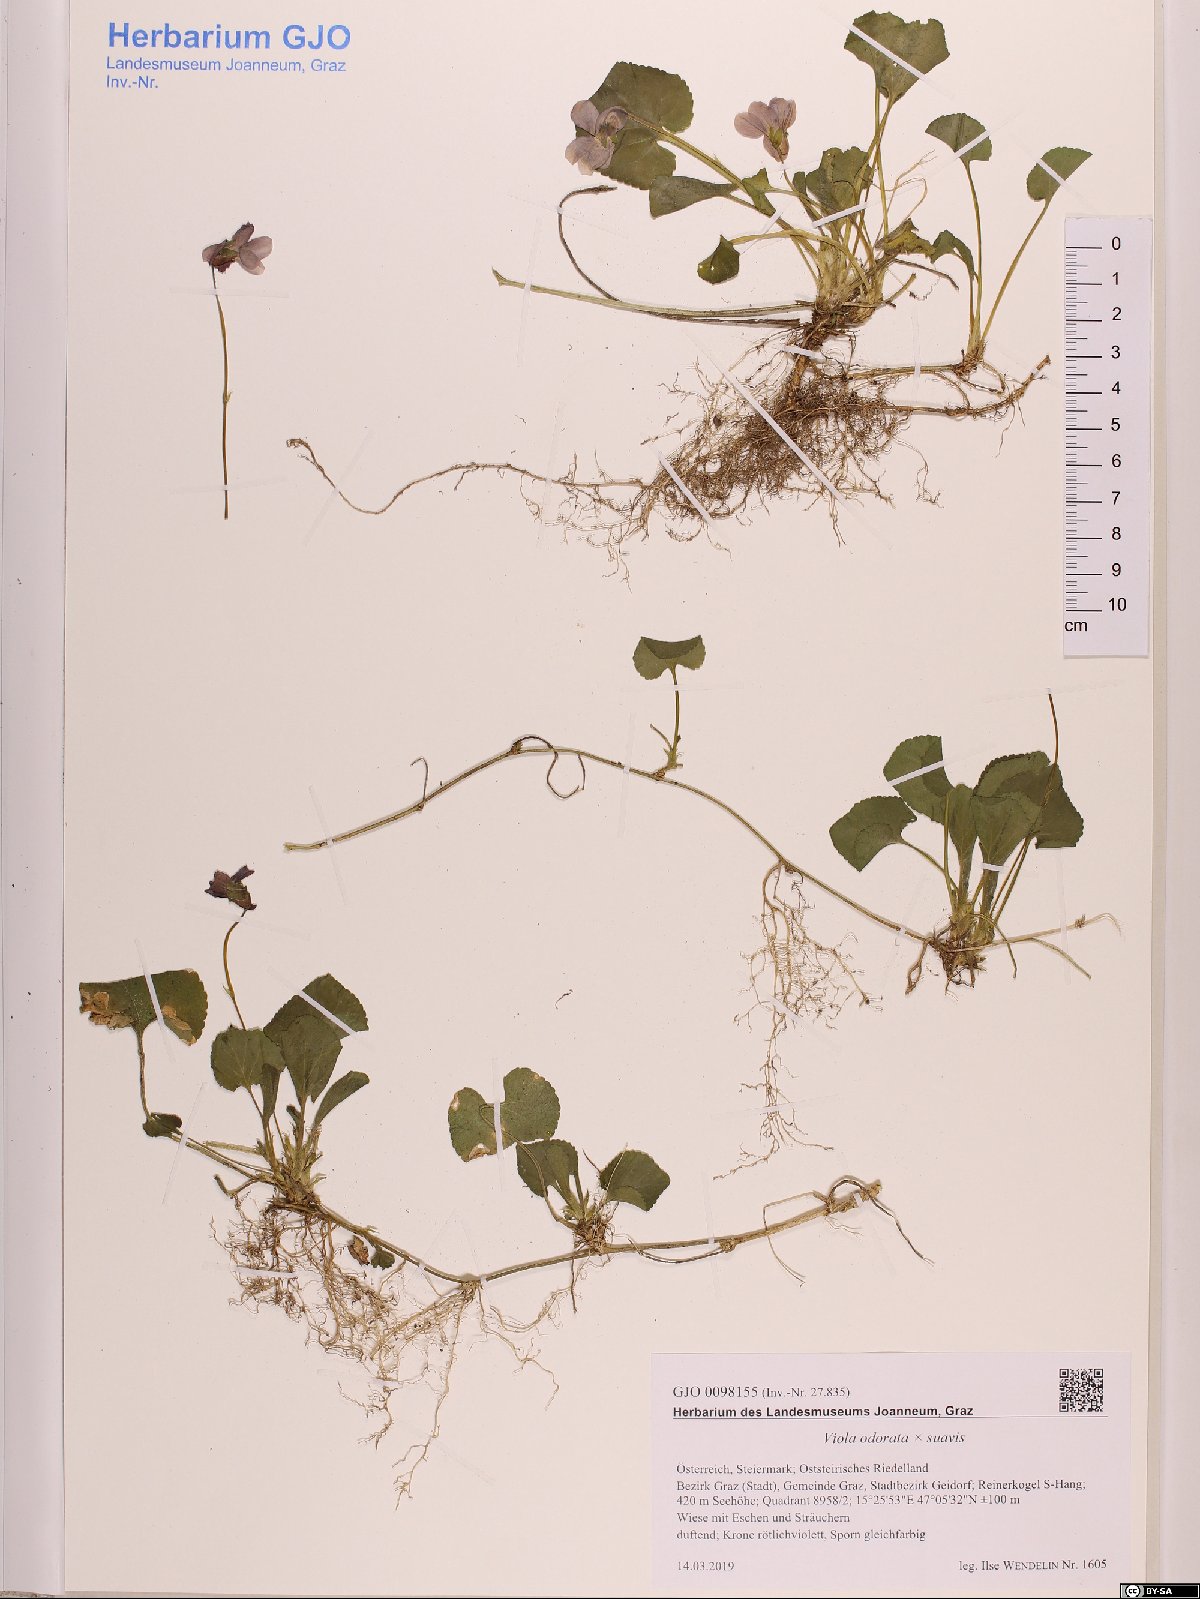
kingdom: Plantae
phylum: Tracheophyta
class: Magnoliopsida
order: Malpighiales
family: Violaceae
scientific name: Violaceae
